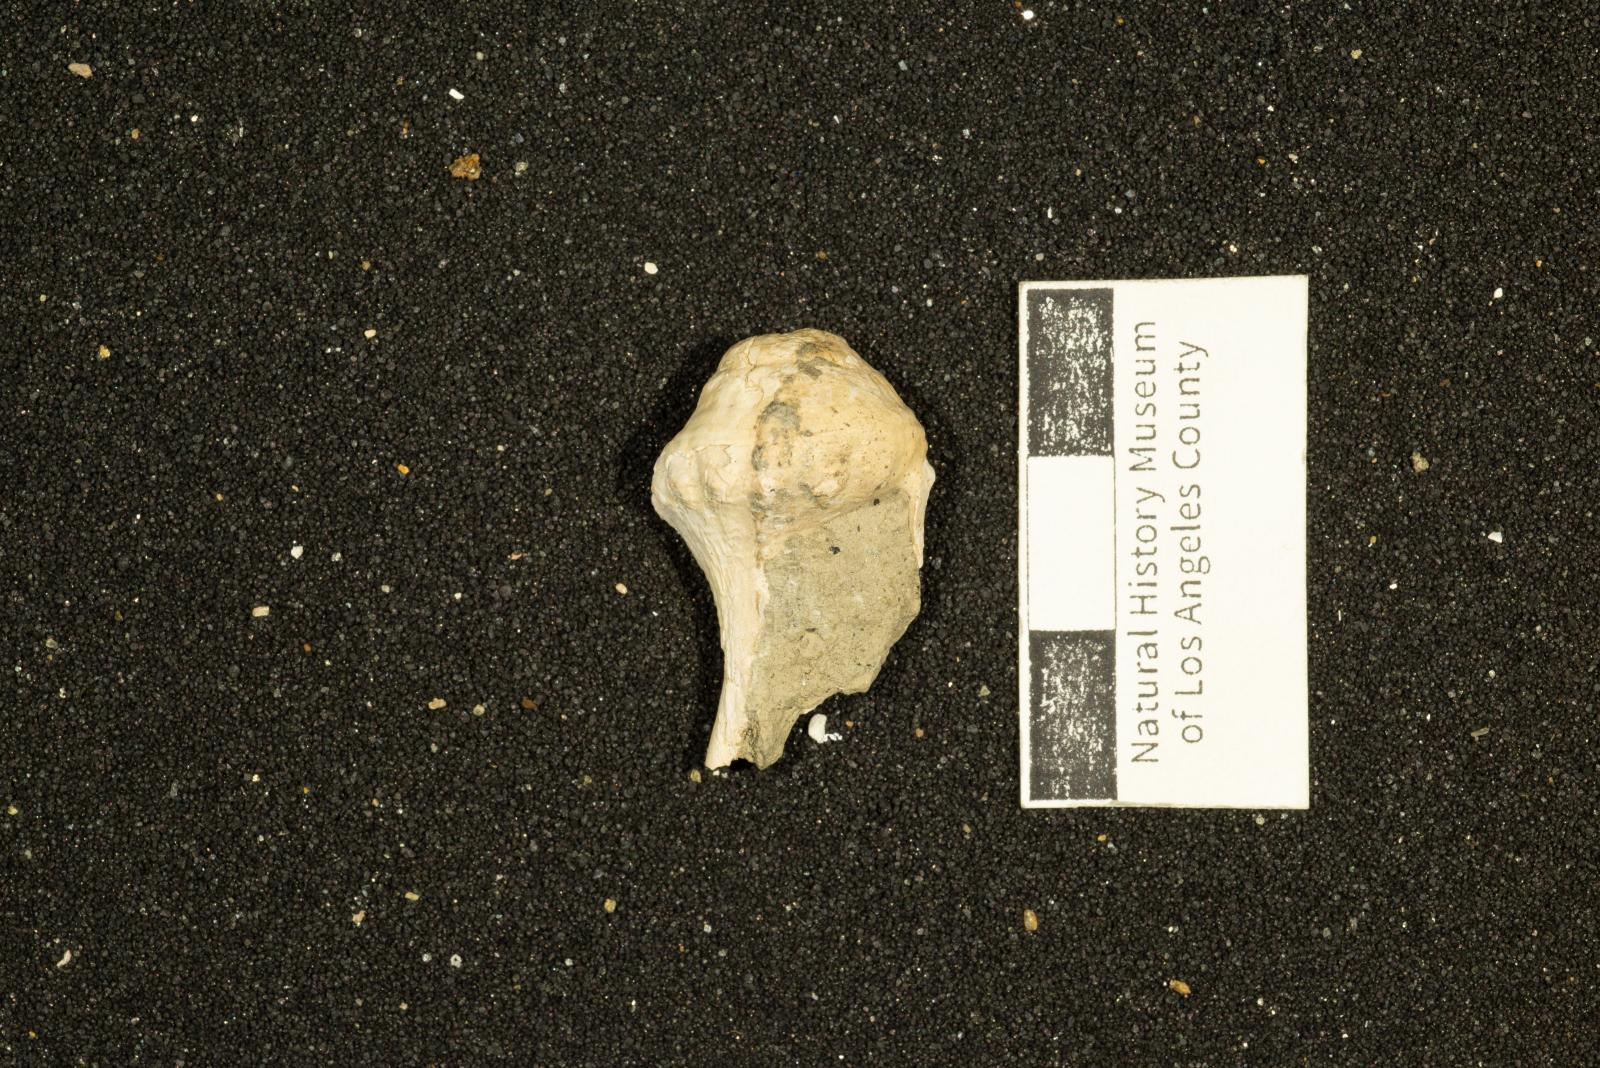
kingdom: Animalia
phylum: Mollusca
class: Gastropoda
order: Neogastropoda
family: Perissityidae
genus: Perissitys
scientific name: Perissitys colocara
